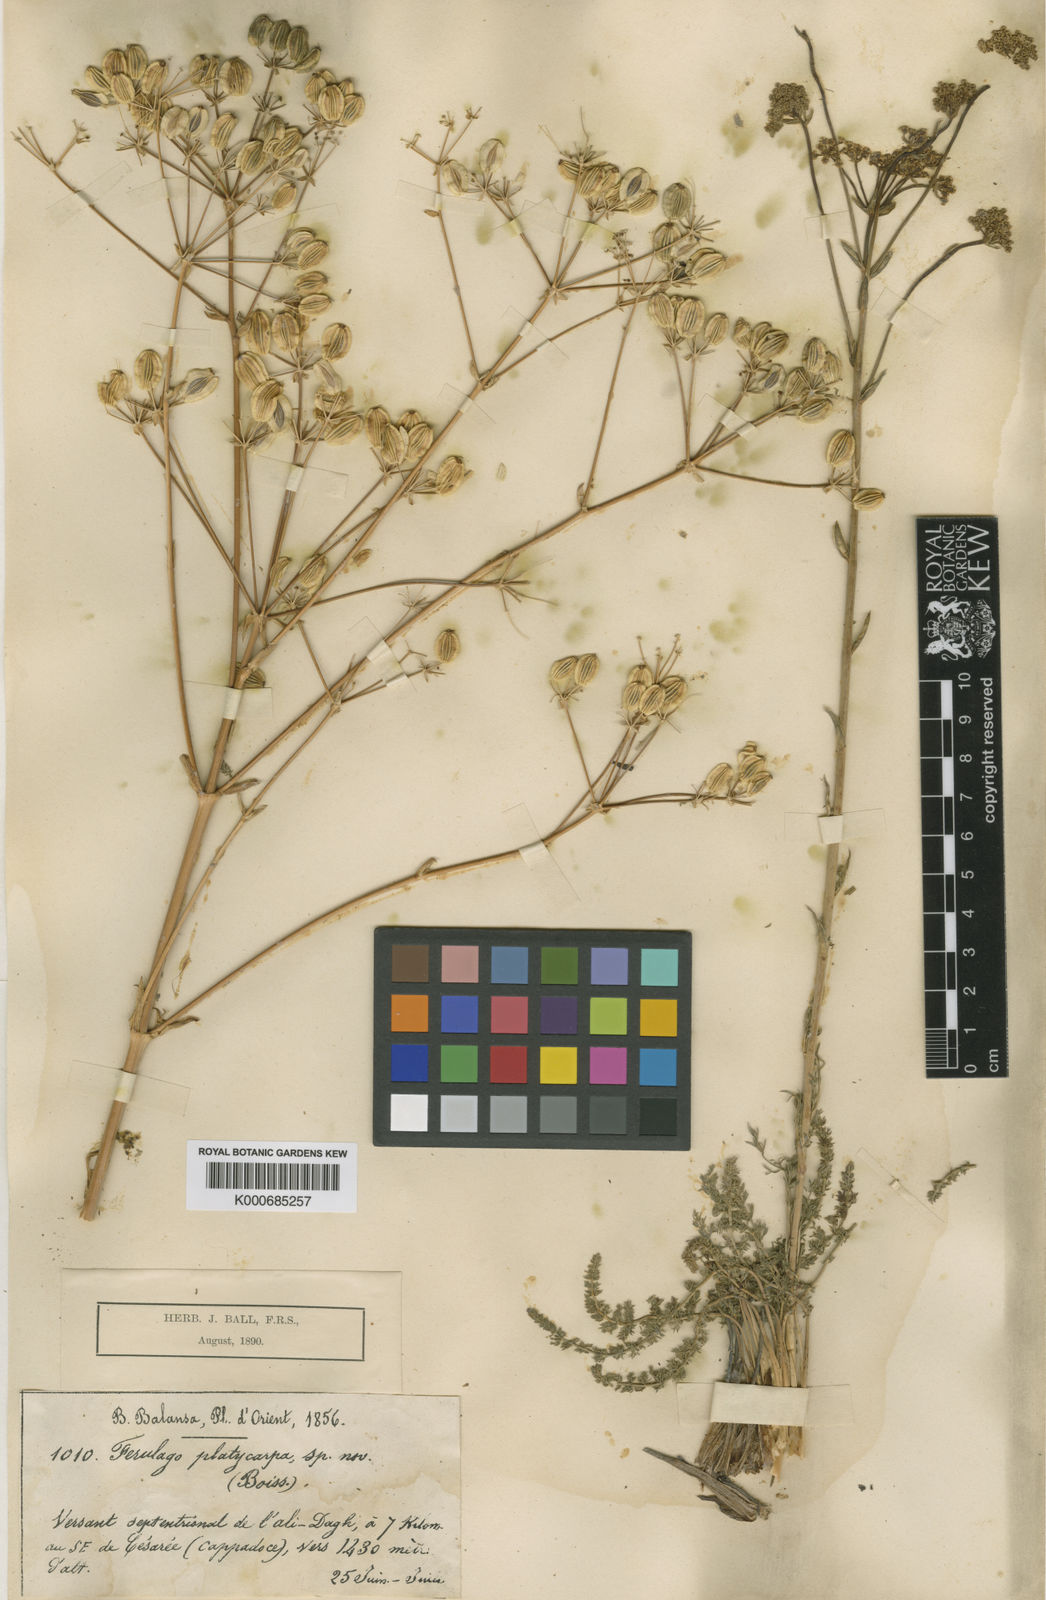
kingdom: Plantae
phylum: Tracheophyta
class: Magnoliopsida
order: Apiales
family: Apiaceae
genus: Ferulago
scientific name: Ferulago platycarpa
